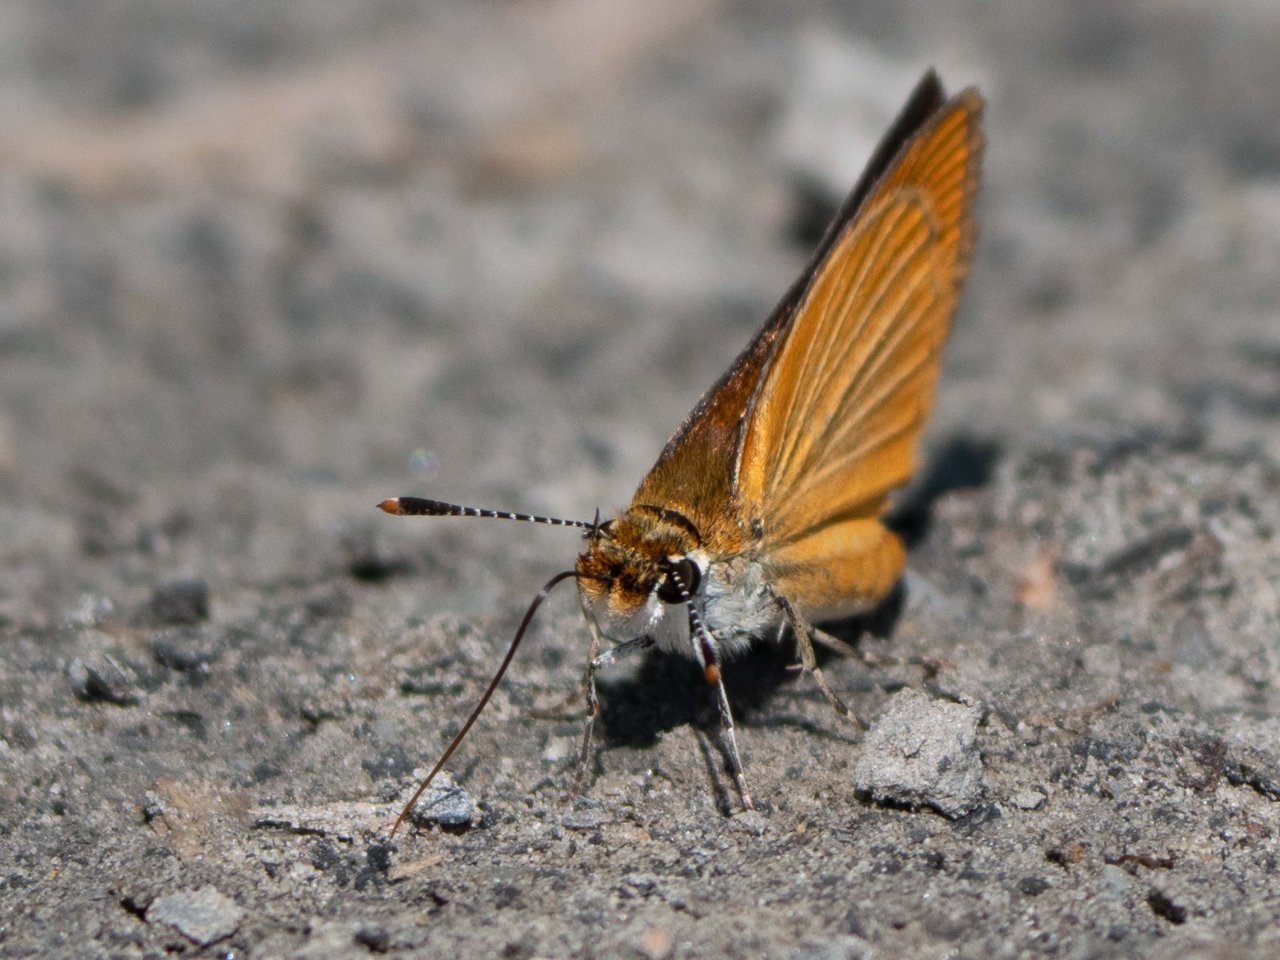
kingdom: Animalia
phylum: Arthropoda
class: Insecta
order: Lepidoptera
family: Hesperiidae
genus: Ancyloxypha
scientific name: Ancyloxypha numitor
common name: Least Skipper
